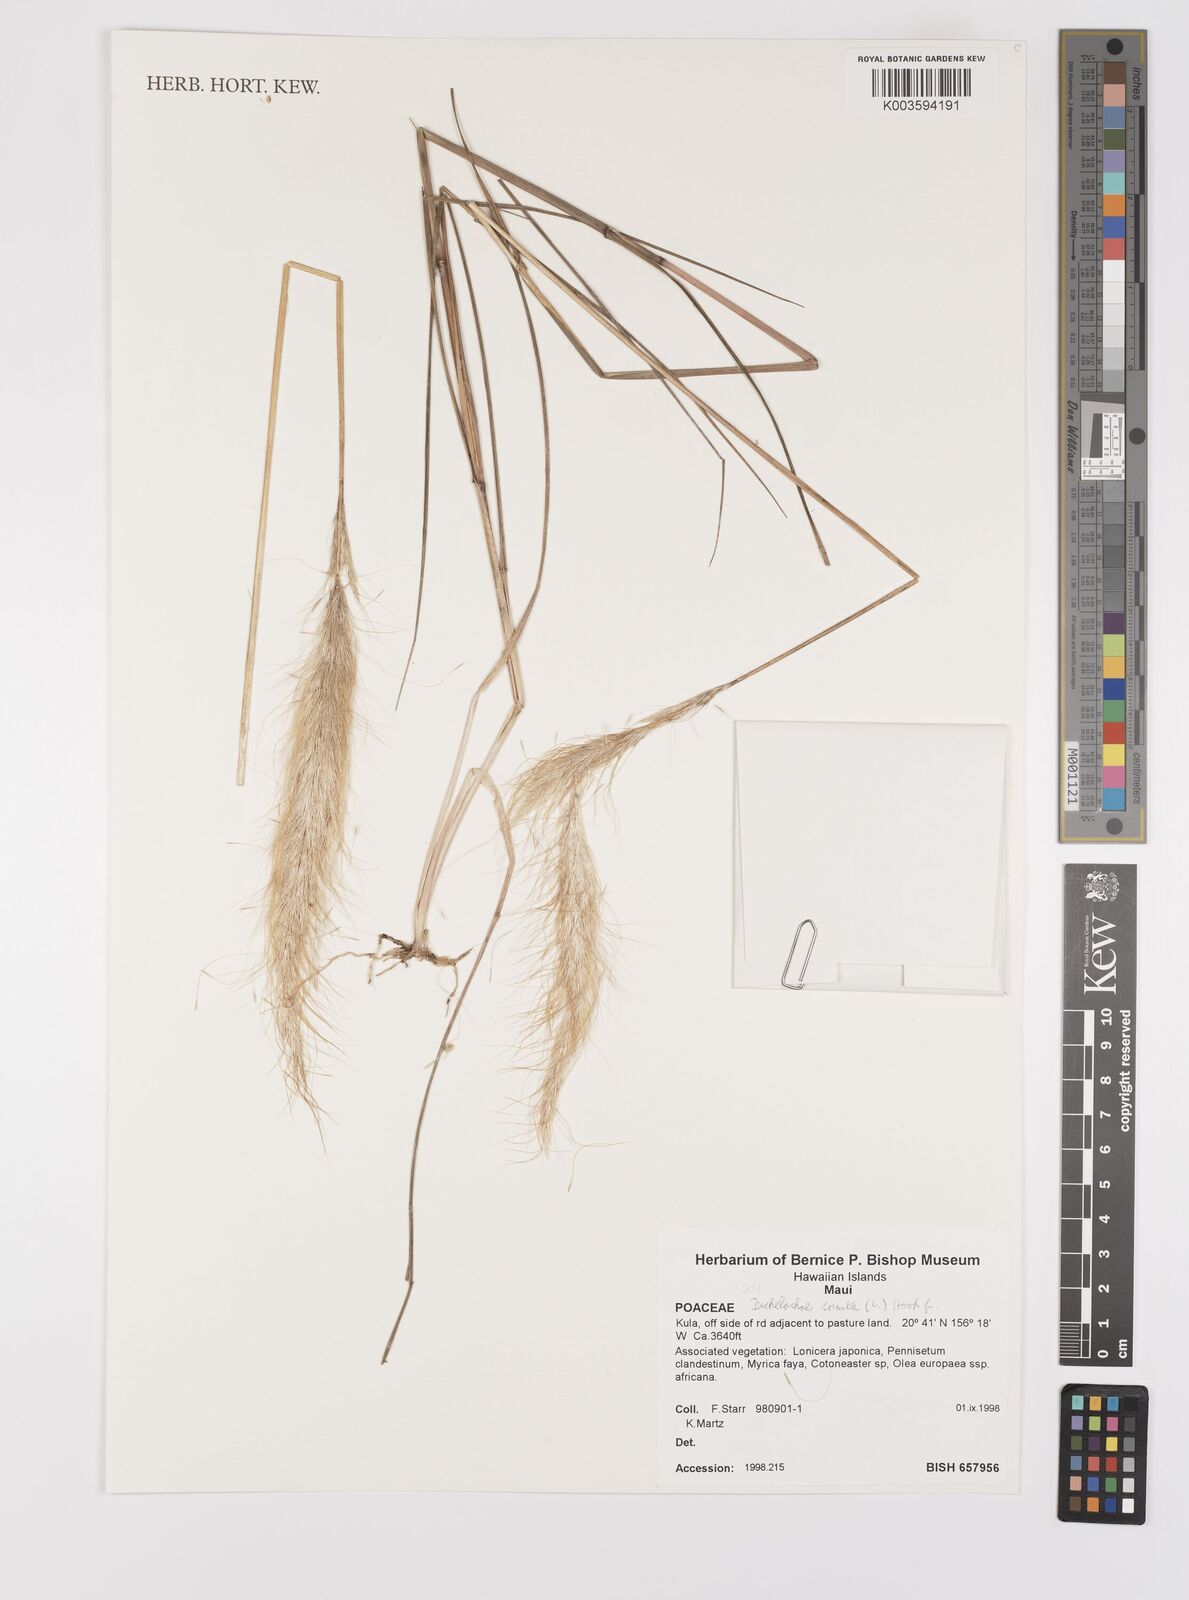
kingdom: Plantae
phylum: Tracheophyta
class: Liliopsida
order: Poales
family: Poaceae
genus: Dichelachne
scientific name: Dichelachne crinita
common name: Clovenfoot plumegrass
